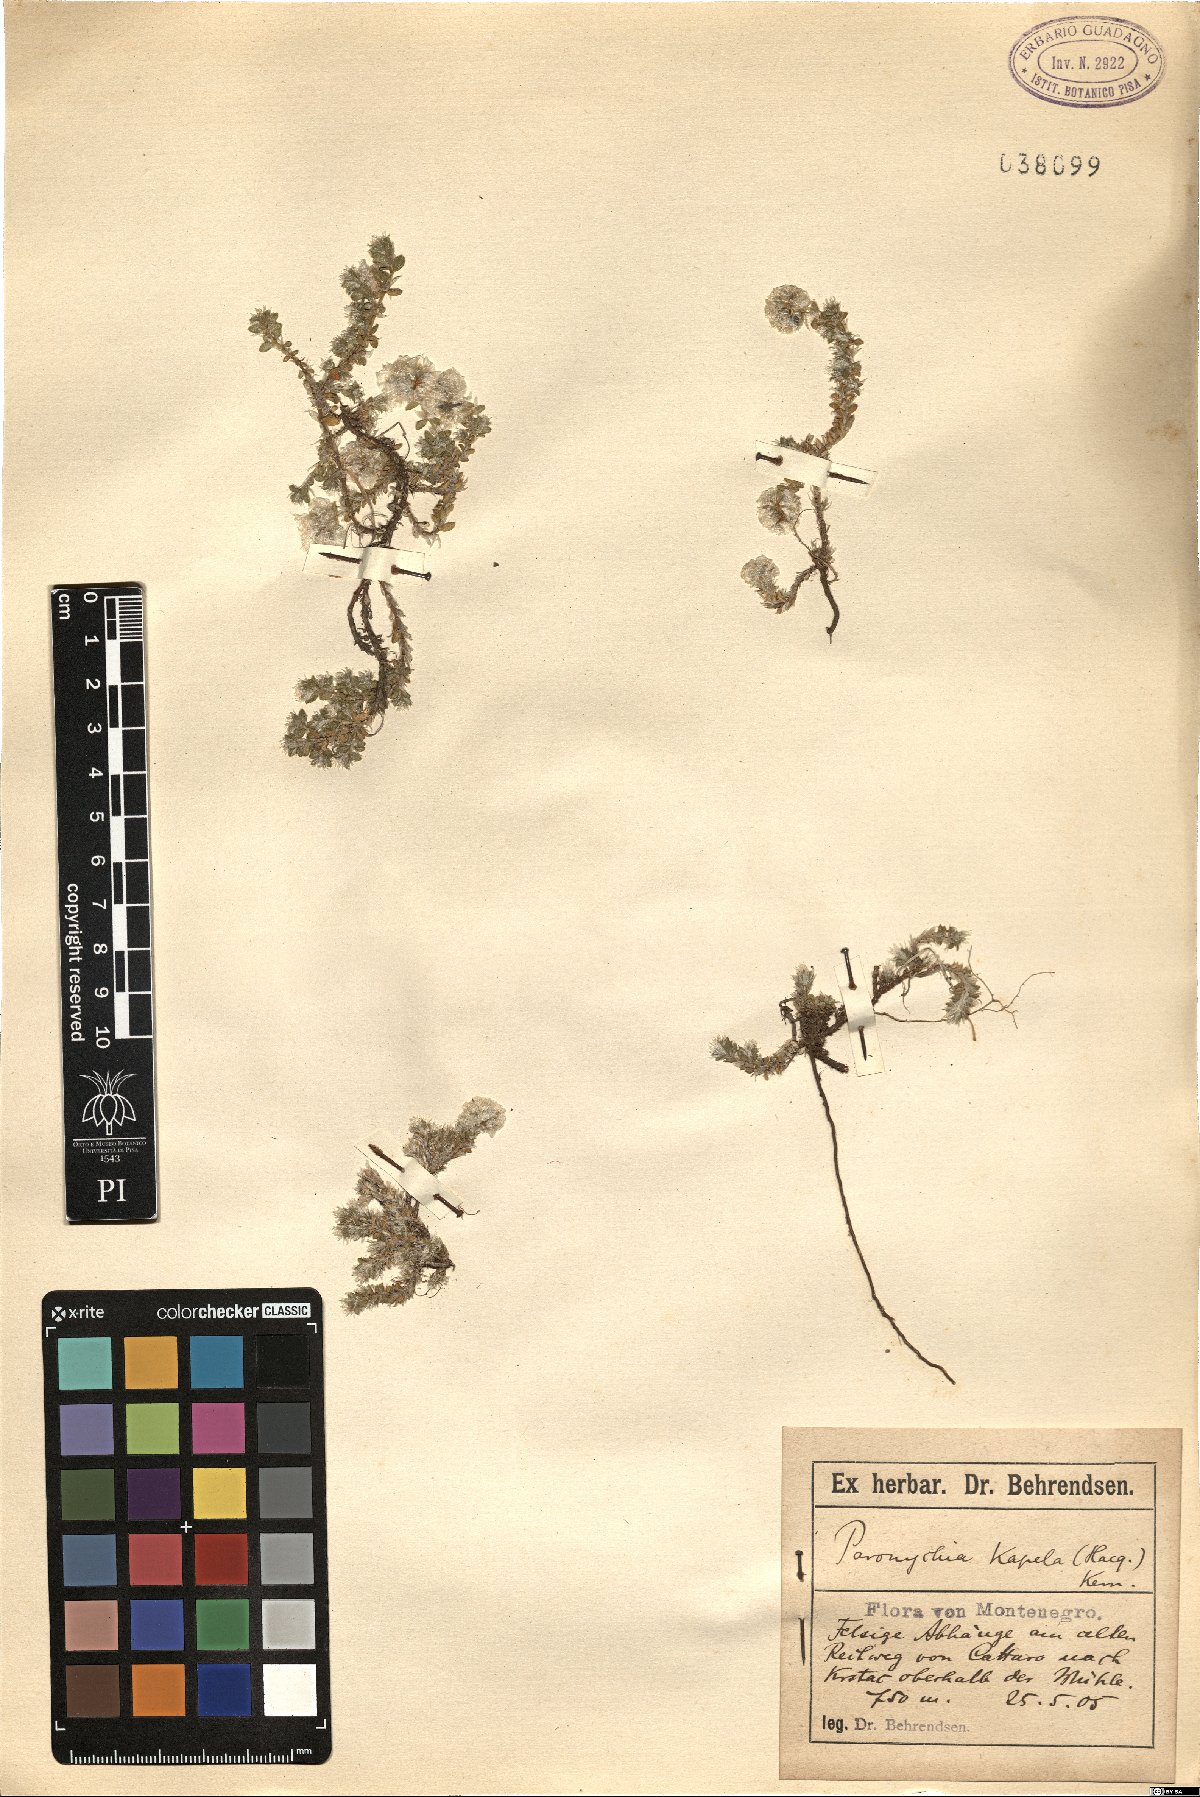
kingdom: Plantae
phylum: Tracheophyta
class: Magnoliopsida
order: Caryophyllales
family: Caryophyllaceae
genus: Paronychia
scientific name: Paronychia kapela
